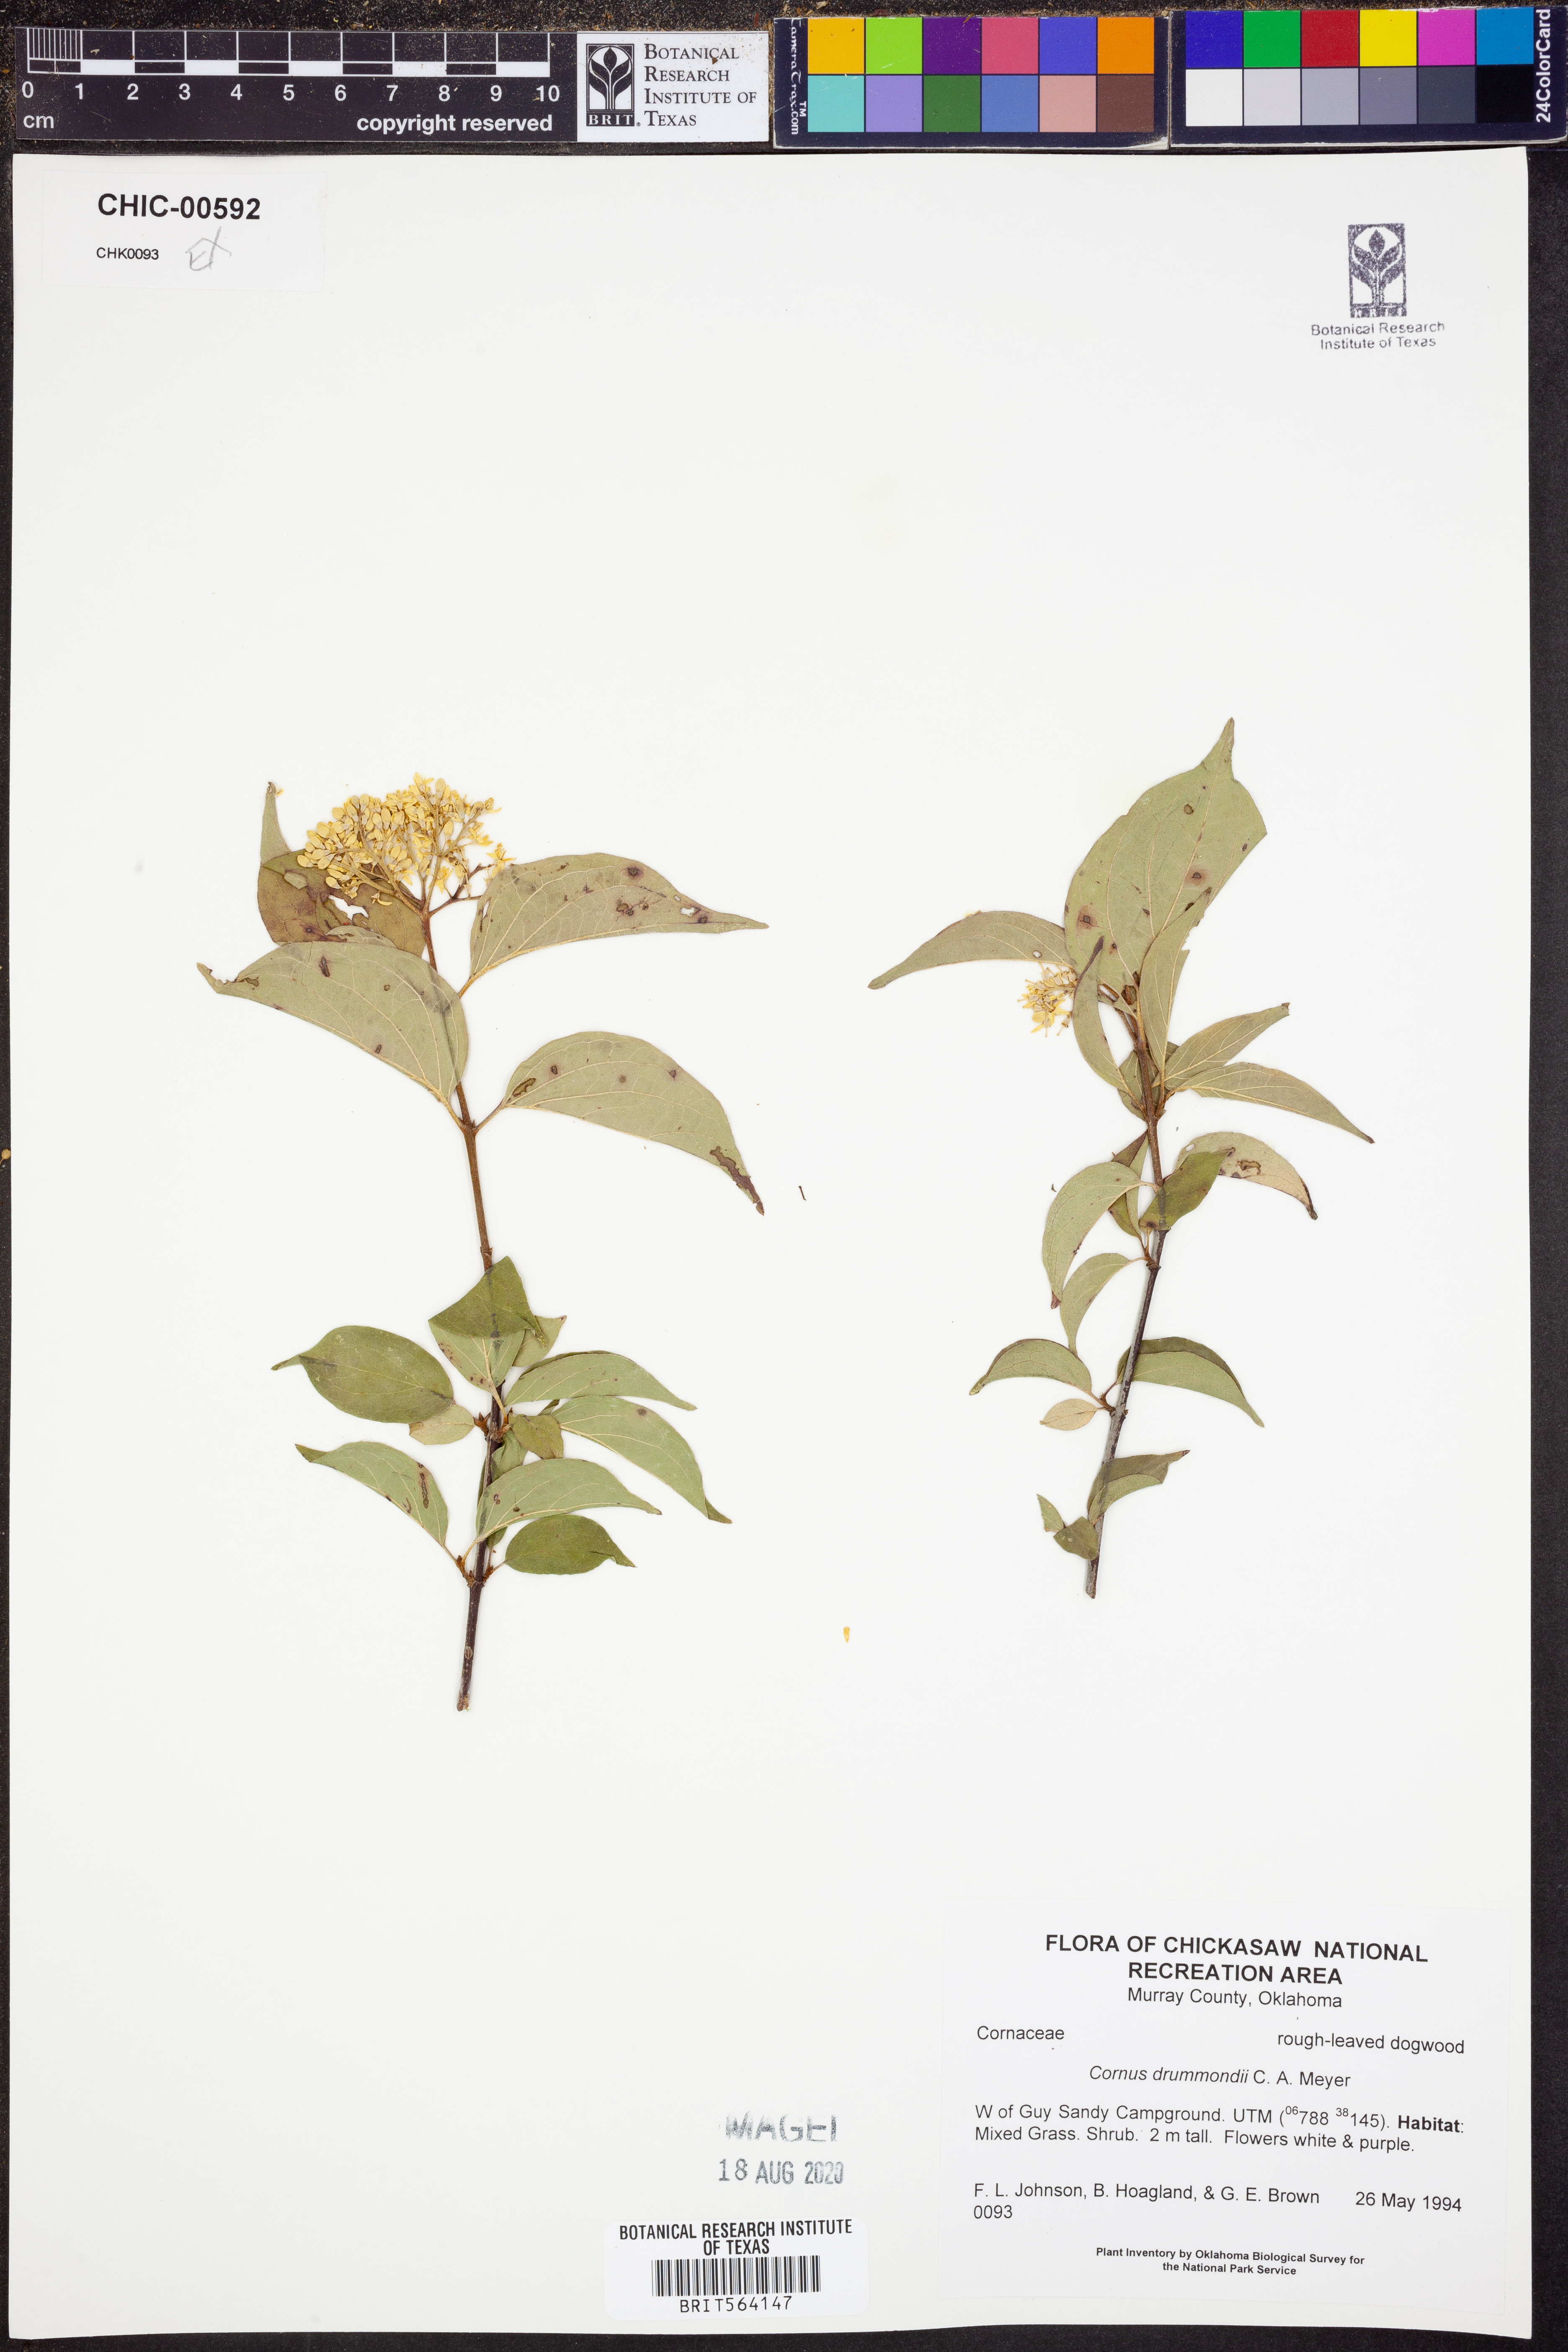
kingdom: Plantae
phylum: Tracheophyta
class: Magnoliopsida
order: Cornales
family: Cornaceae
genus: Cornus
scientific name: Cornus drummondii
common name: Rough-leaf dogwood
